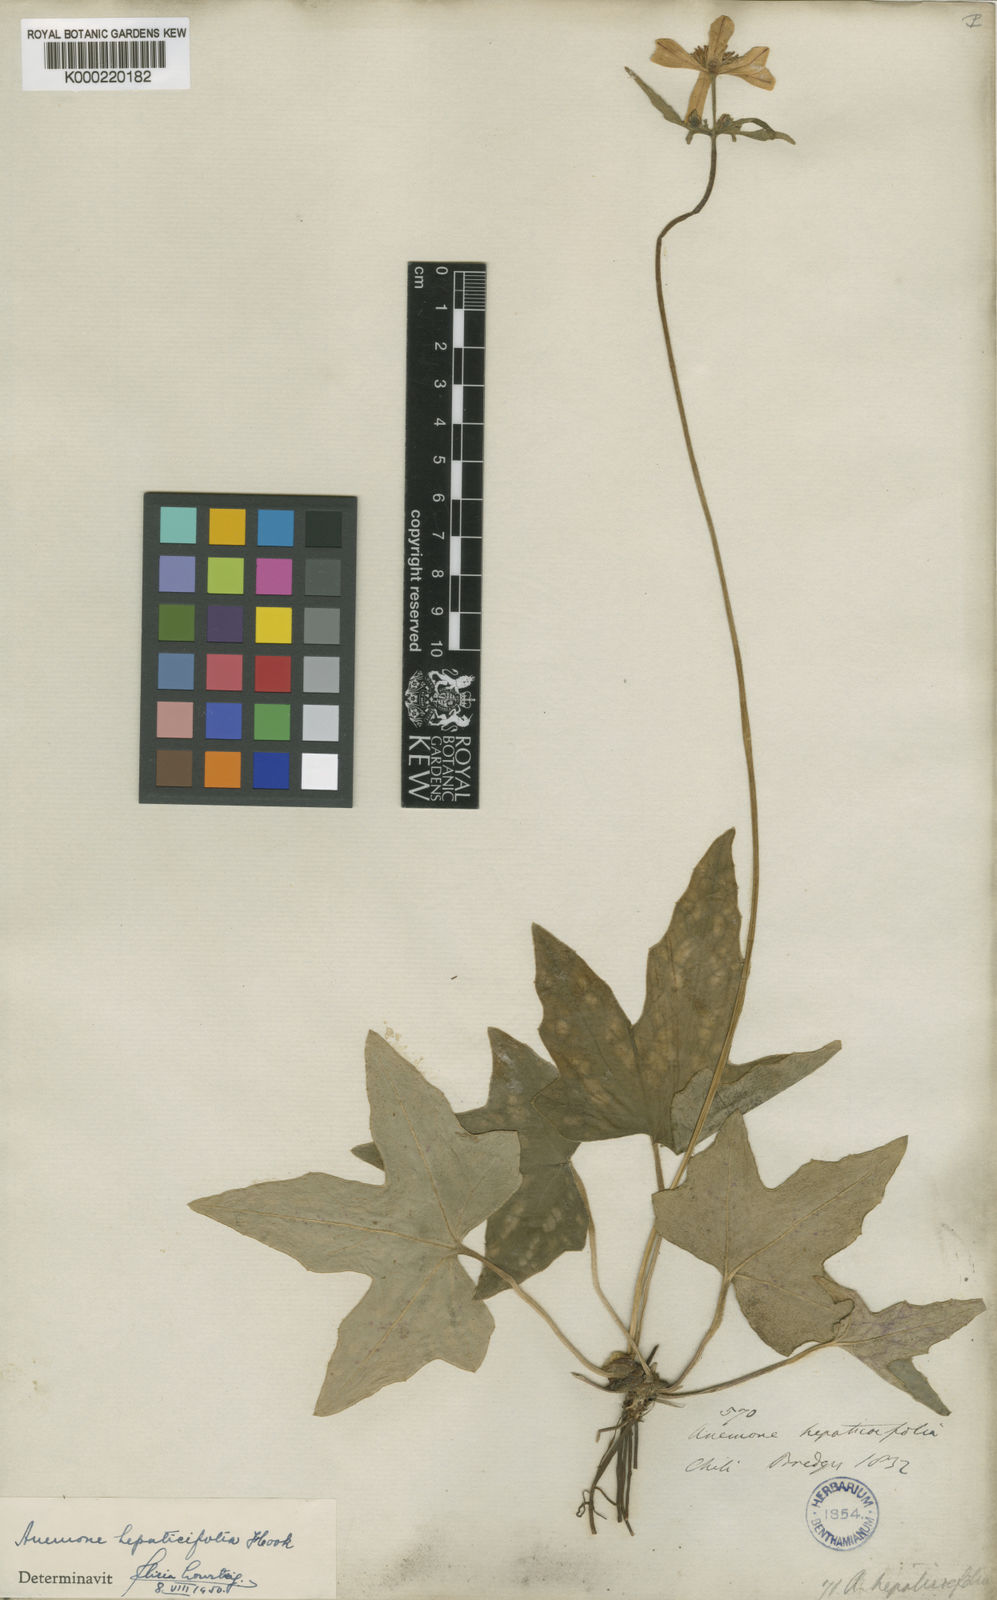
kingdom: Plantae
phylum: Tracheophyta
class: Magnoliopsida
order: Ranunculales
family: Ranunculaceae
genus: Knowltonia
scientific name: Knowltonia hepaticifolia
